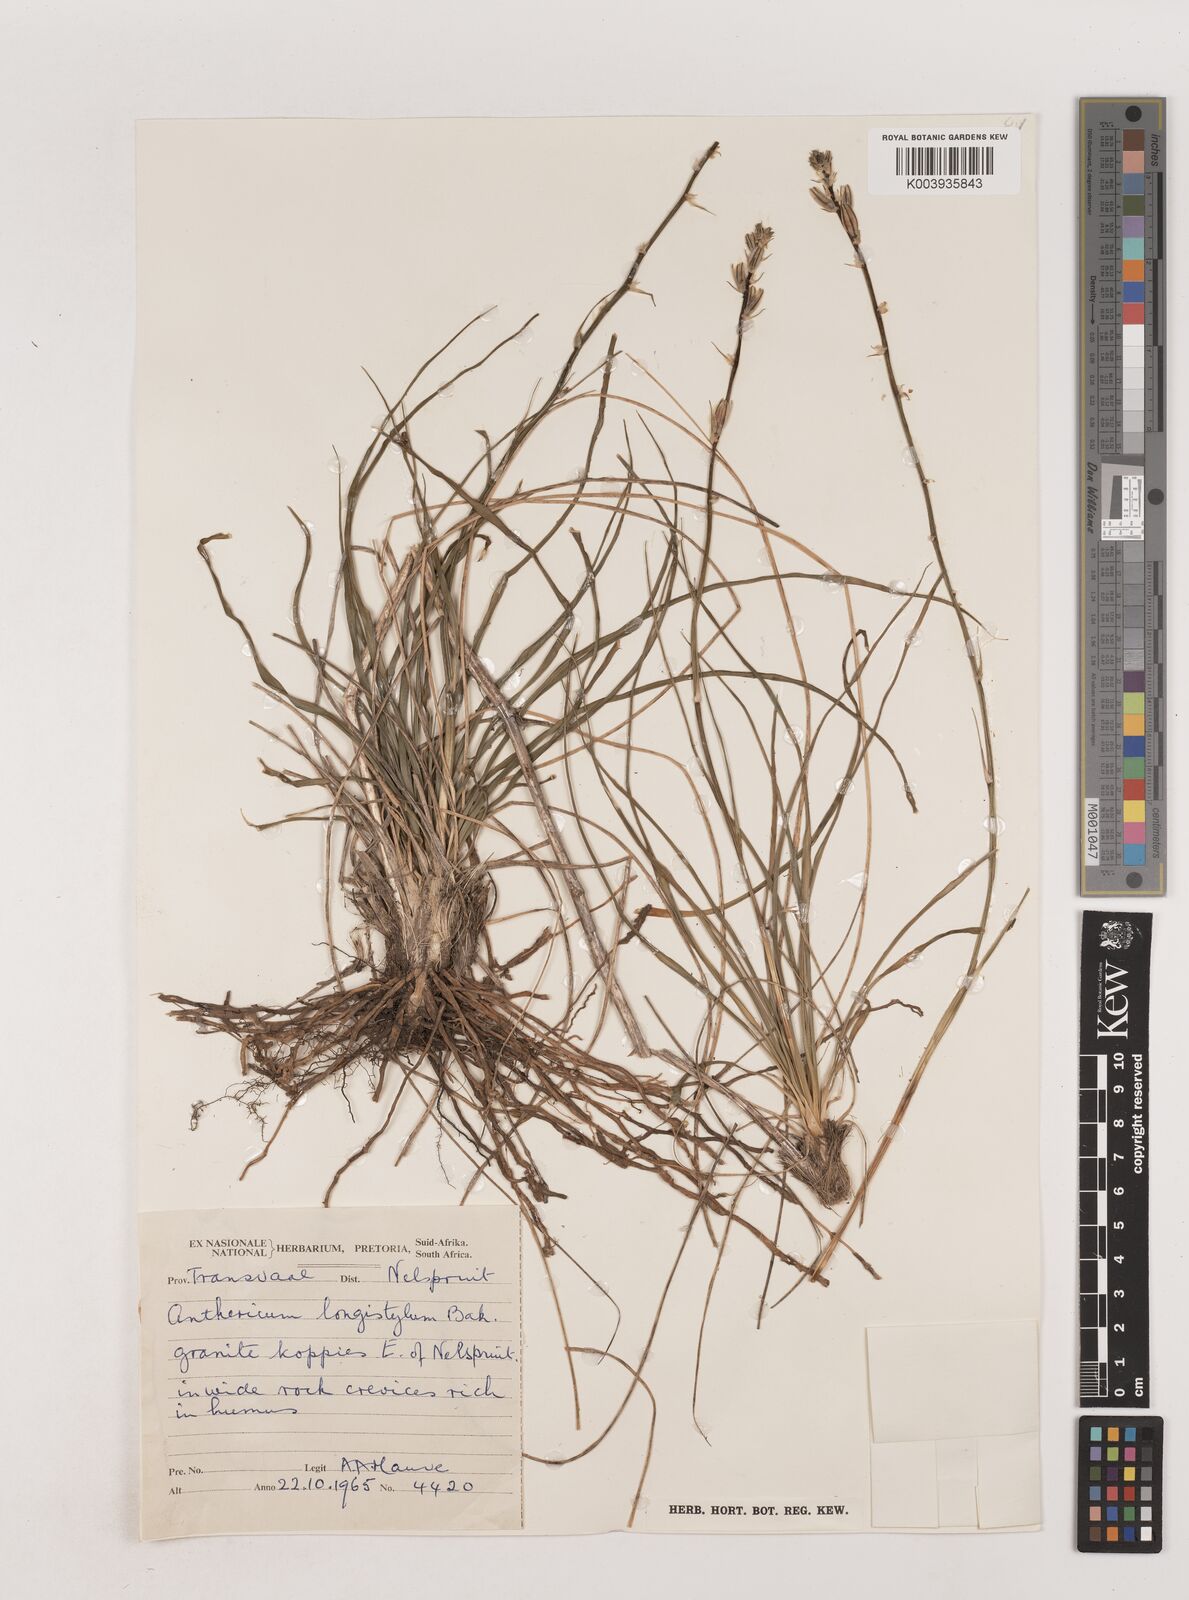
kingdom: Plantae
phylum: Tracheophyta
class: Liliopsida
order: Asparagales
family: Asparagaceae
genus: Chlorophytum
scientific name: Chlorophytum recurvifolium
